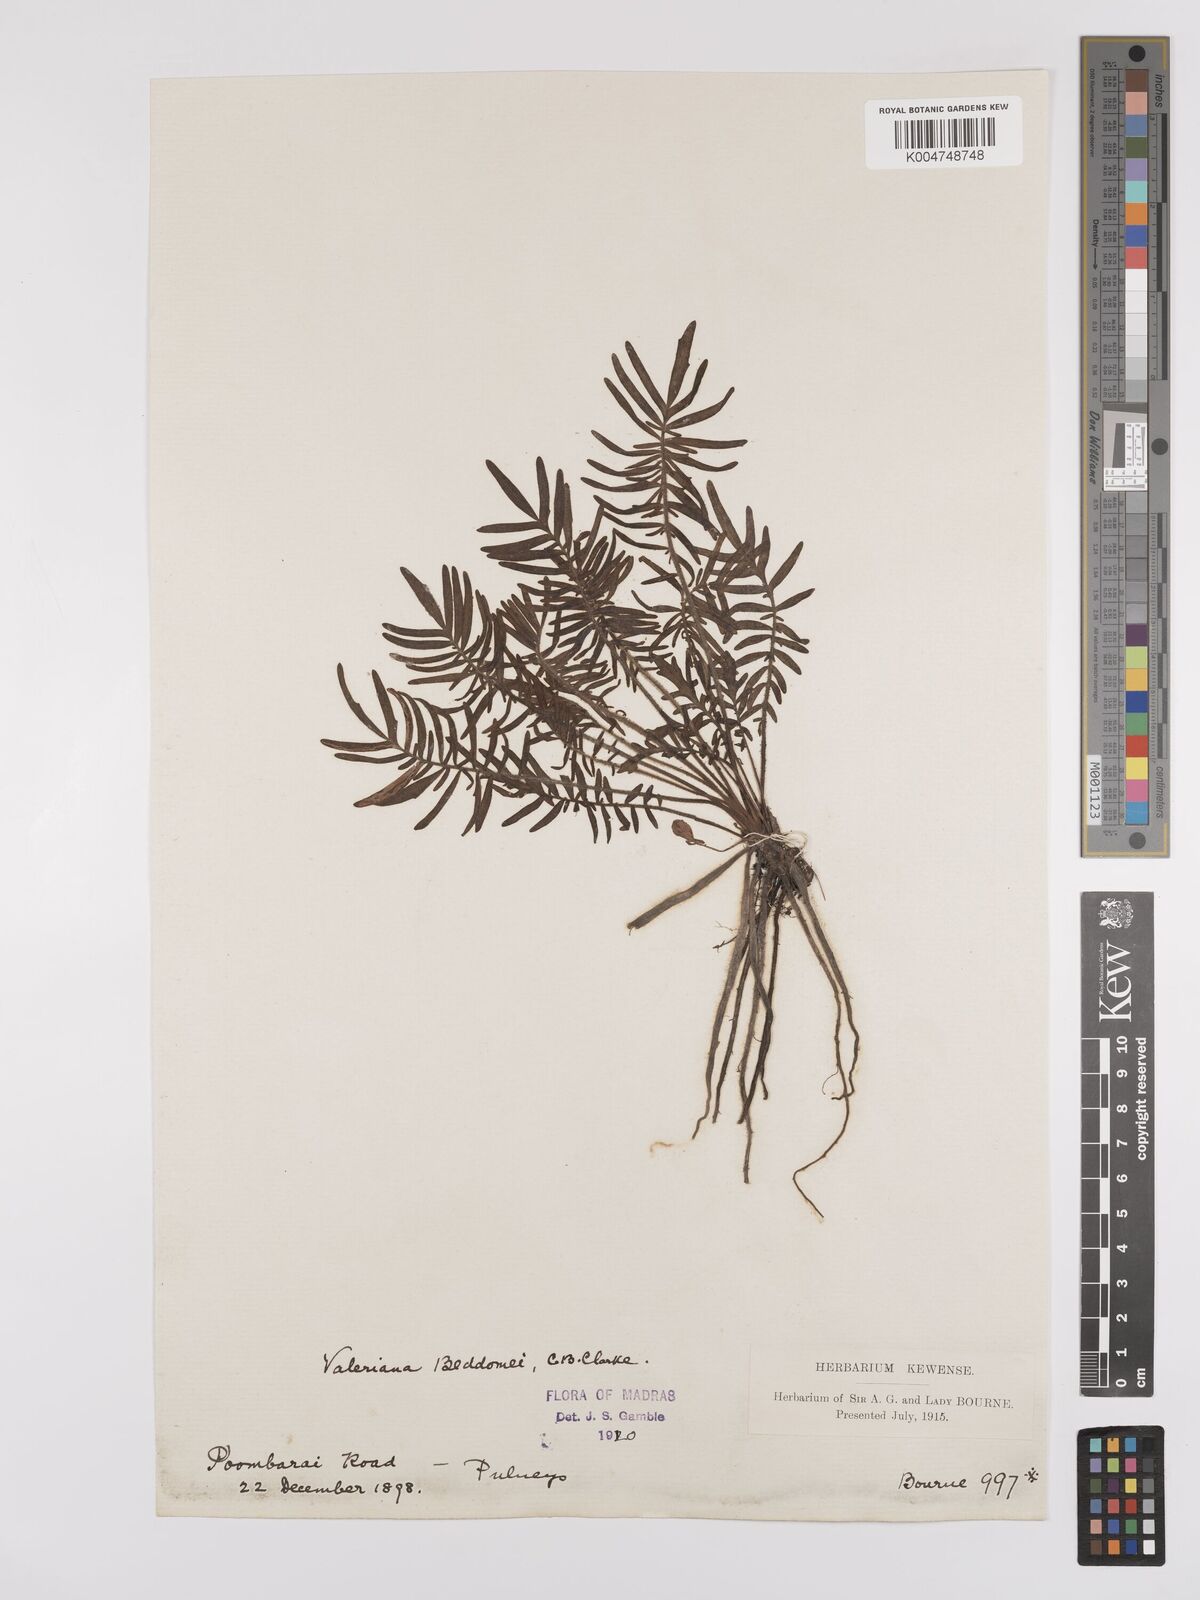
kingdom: Plantae
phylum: Tracheophyta
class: Magnoliopsida
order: Dipsacales
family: Caprifoliaceae
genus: Valeriana
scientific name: Valeriana beddomei
